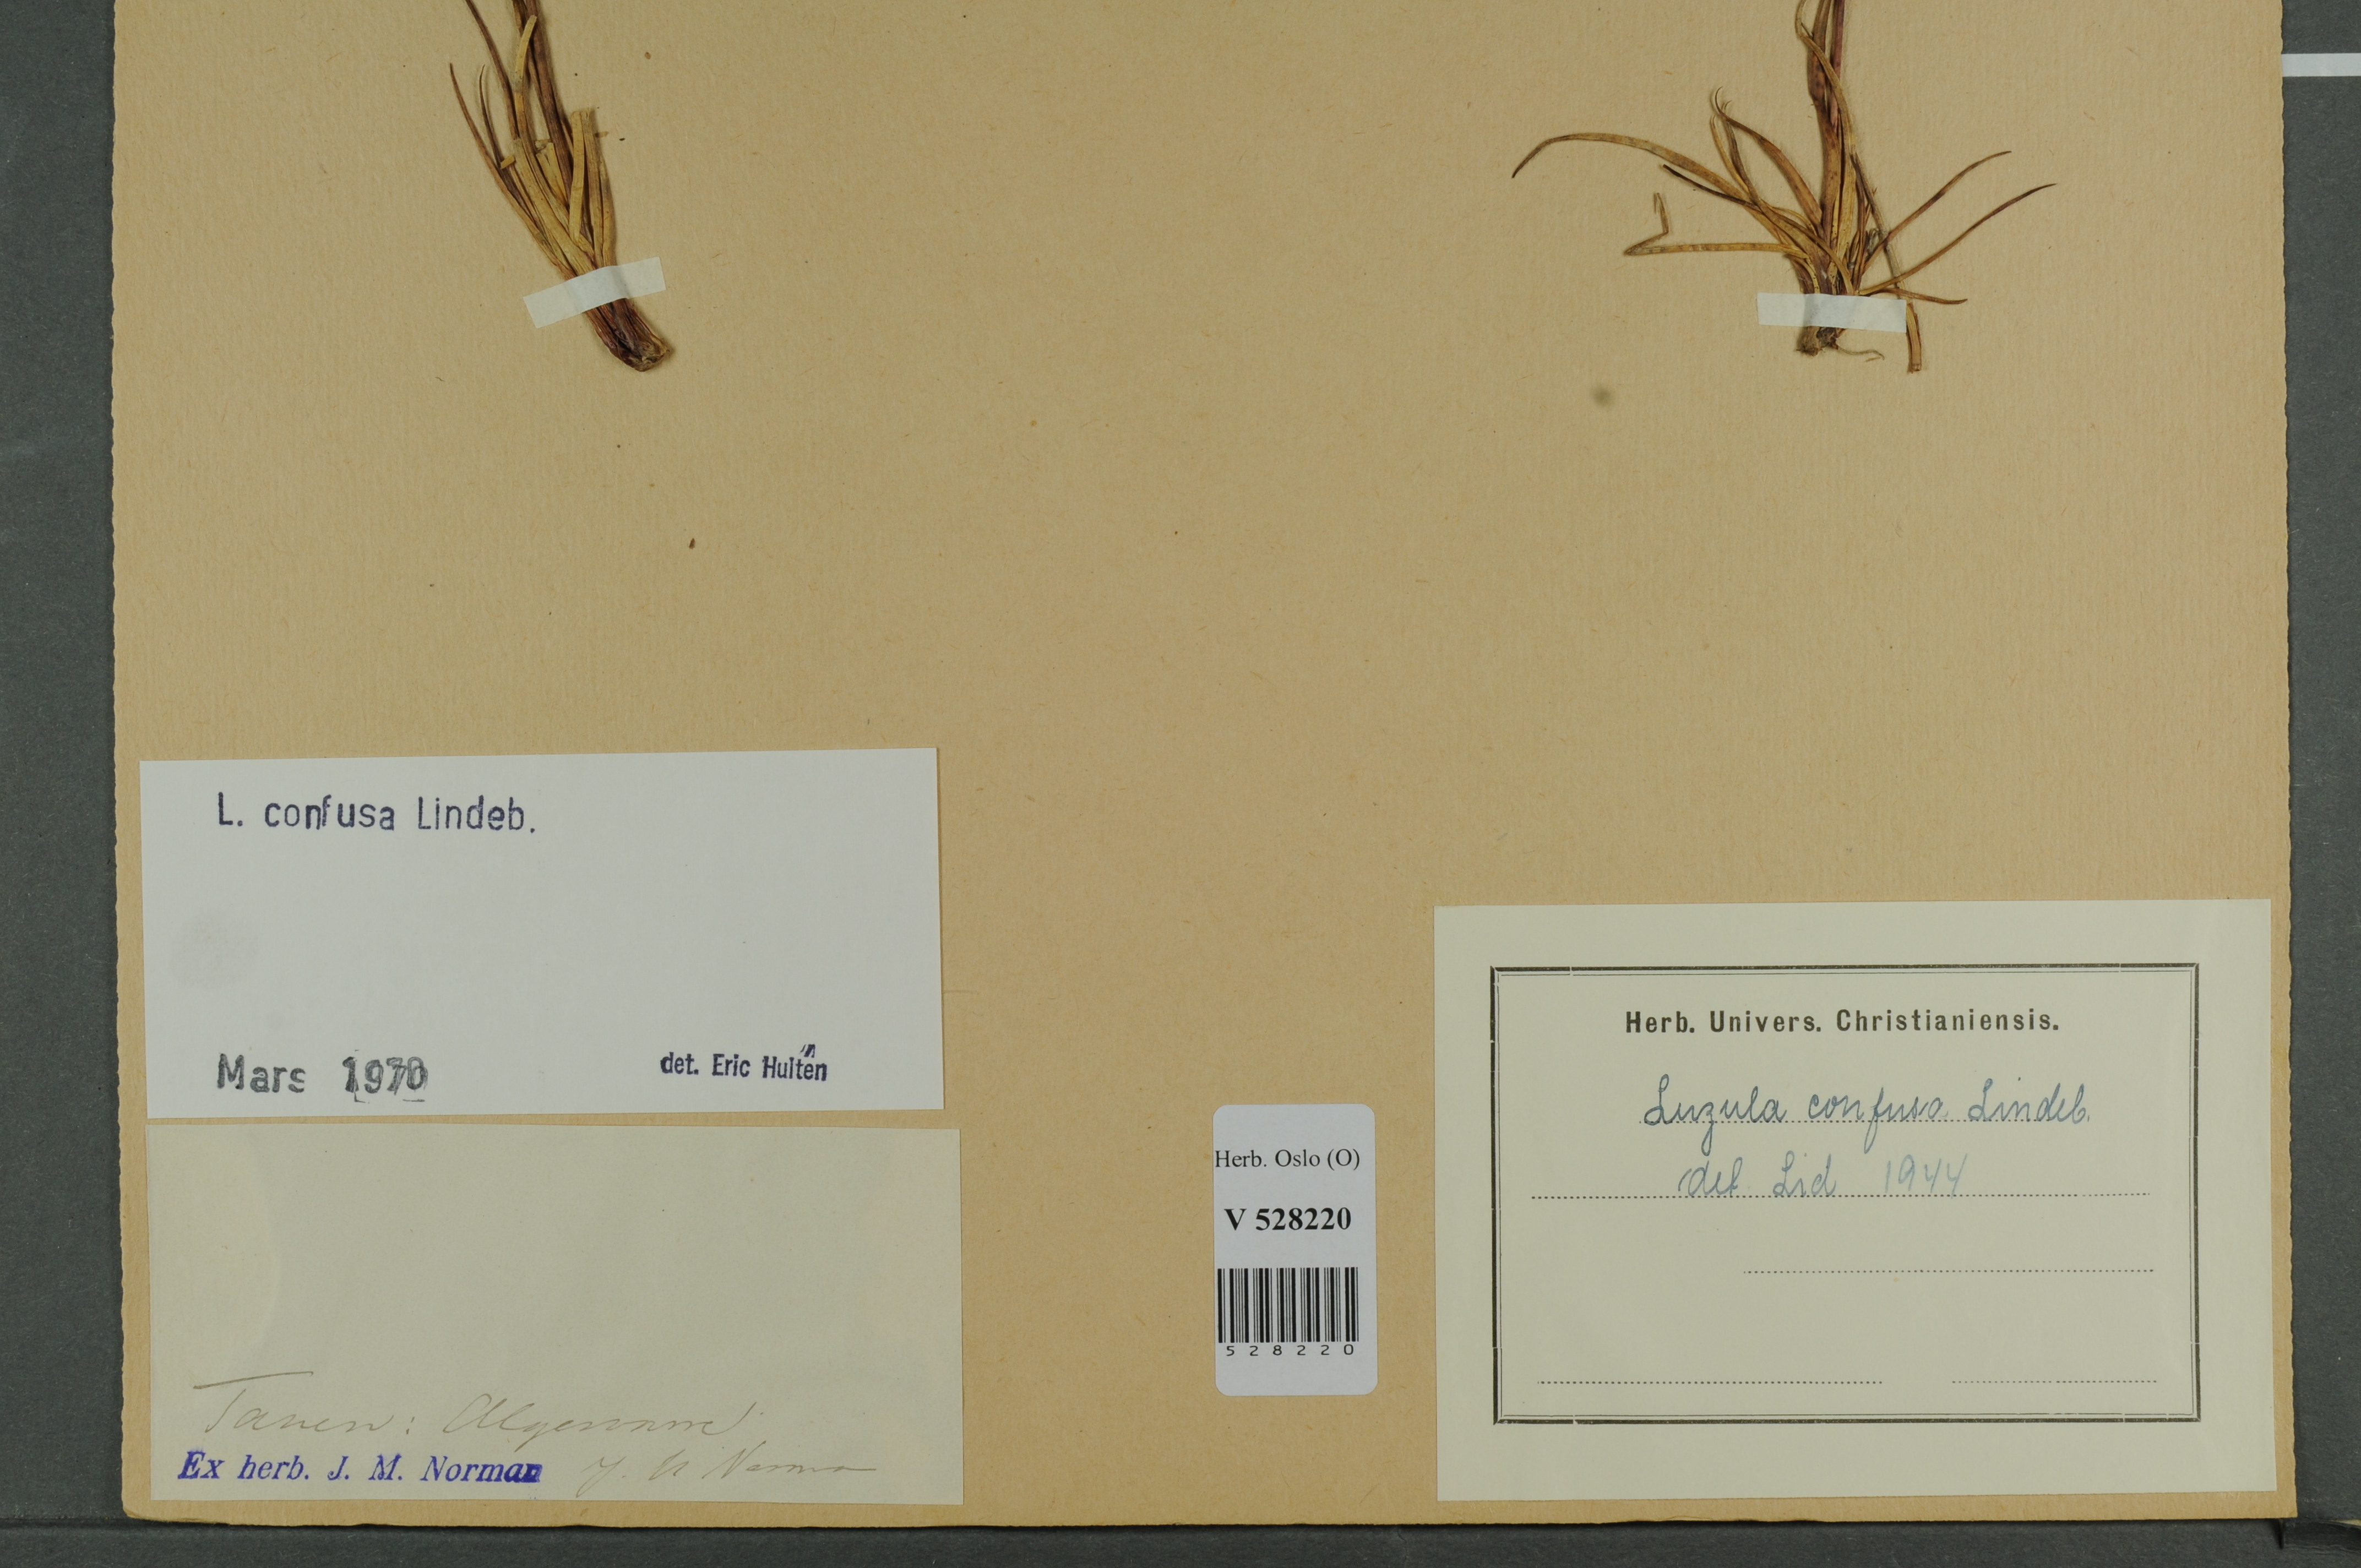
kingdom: Plantae
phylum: Tracheophyta
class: Liliopsida
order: Poales
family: Juncaceae
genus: Luzula
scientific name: Luzula confusa
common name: Northern wood rush
